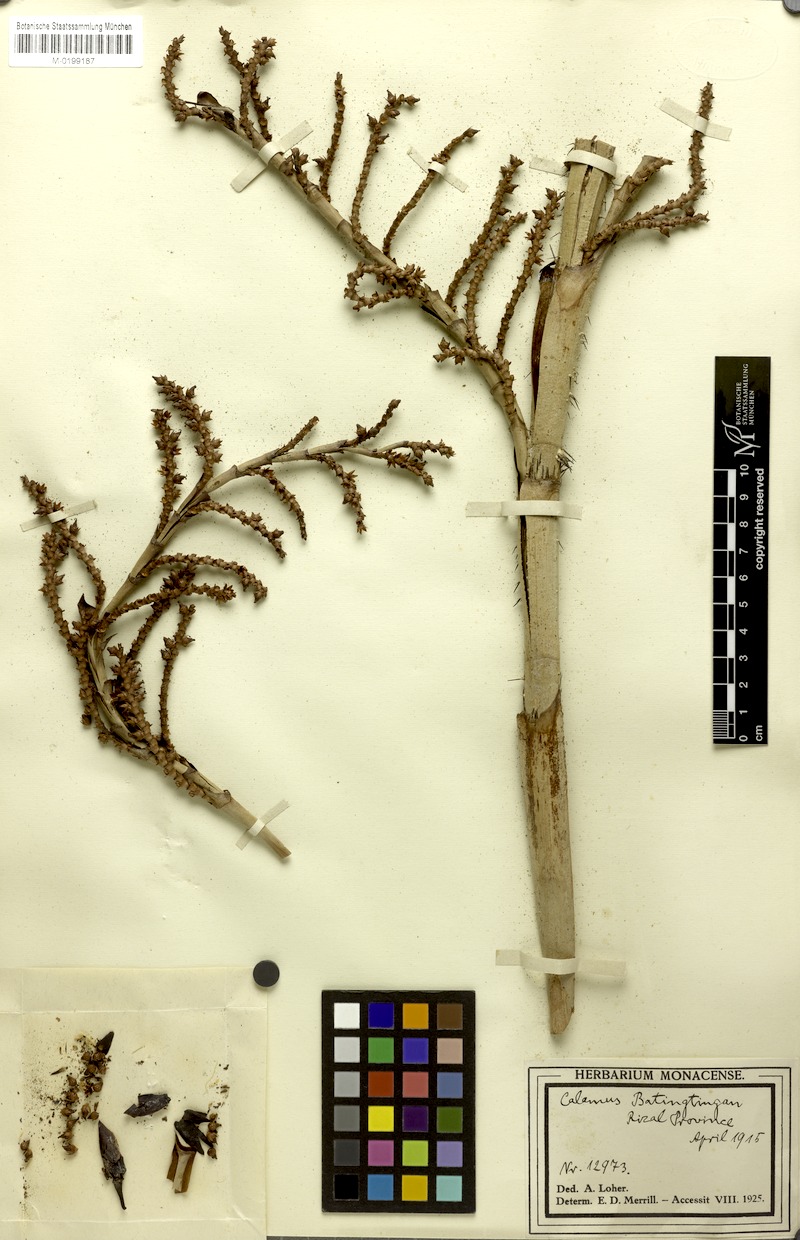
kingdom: Plantae
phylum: Tracheophyta
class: Liliopsida
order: Arecales
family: Arecaceae
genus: Calamus
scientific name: Calamus
